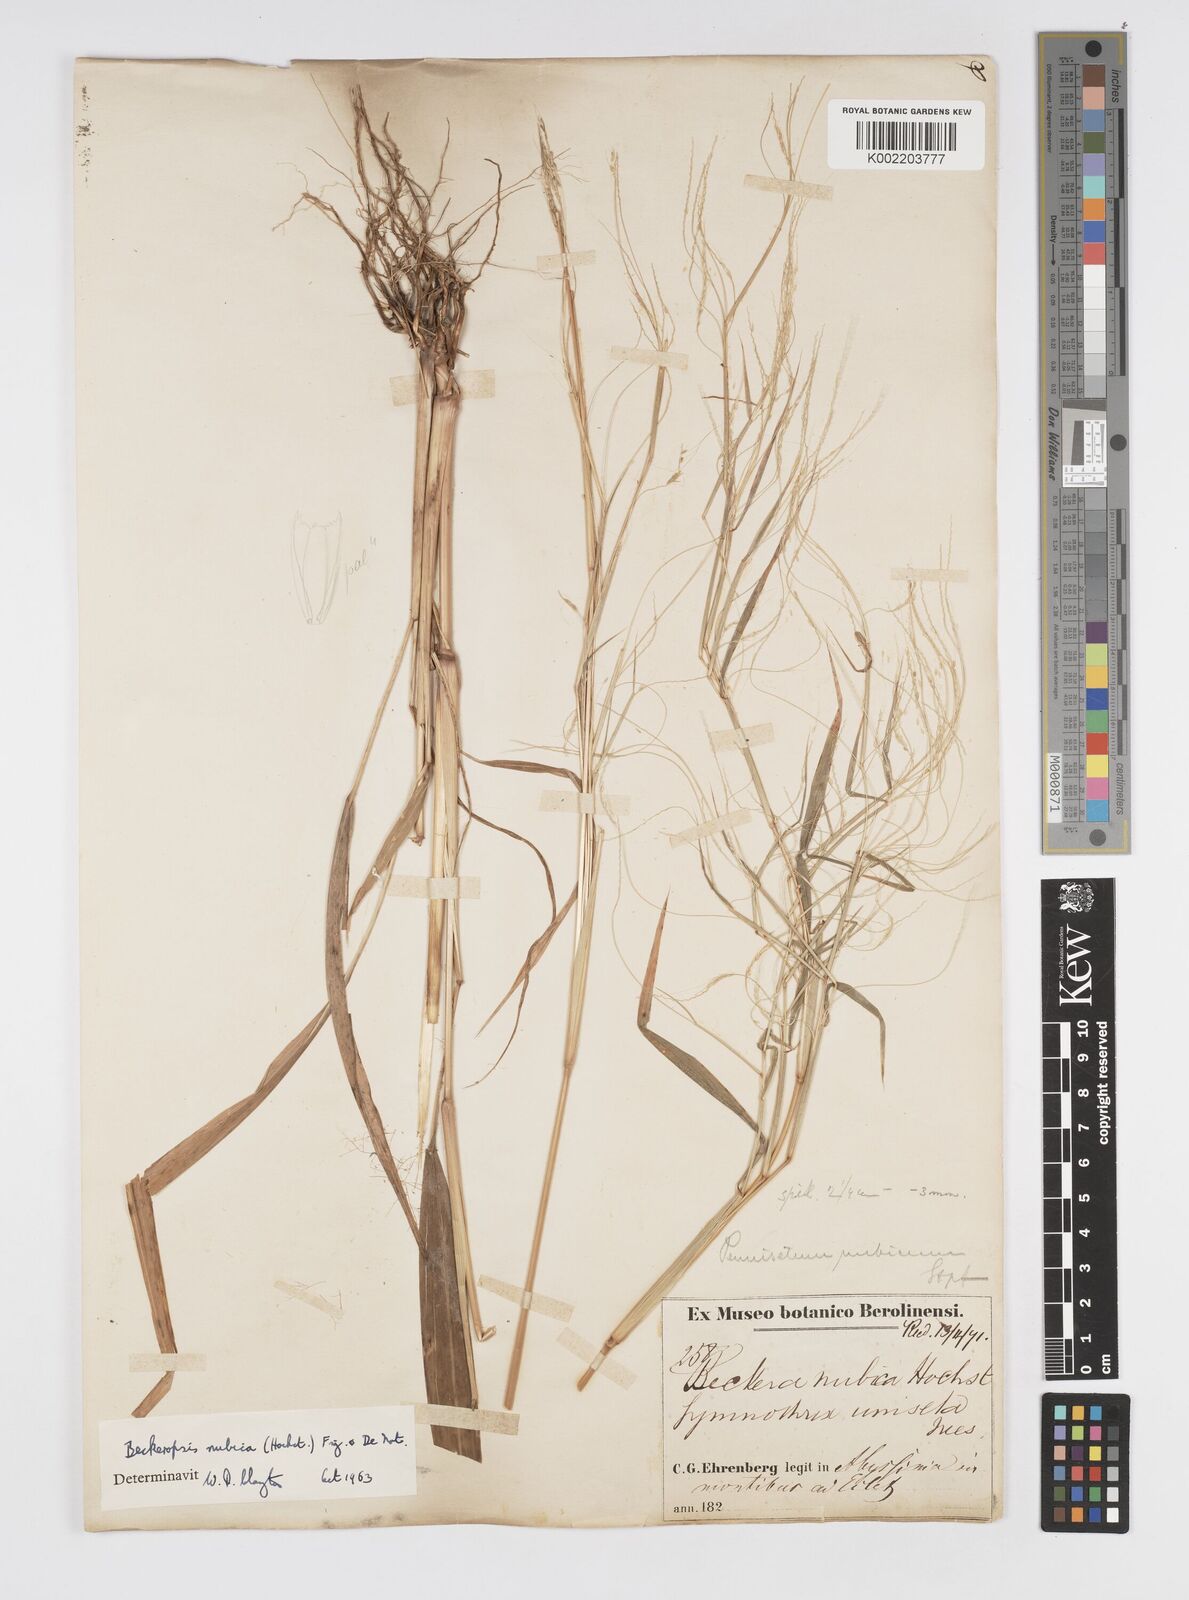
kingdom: Plantae
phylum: Tracheophyta
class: Liliopsida
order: Poales
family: Poaceae
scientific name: Poaceae
